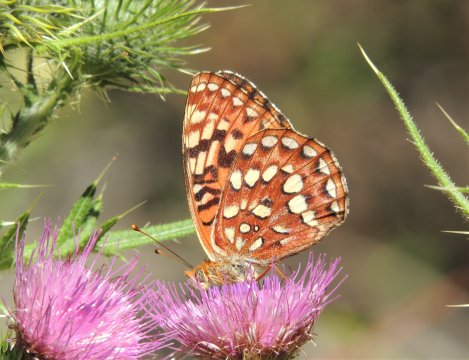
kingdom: Animalia
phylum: Arthropoda
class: Insecta
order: Lepidoptera
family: Nymphalidae
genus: Speyeria
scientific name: Speyeria hydaspe
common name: Hydaspe Fritillary
